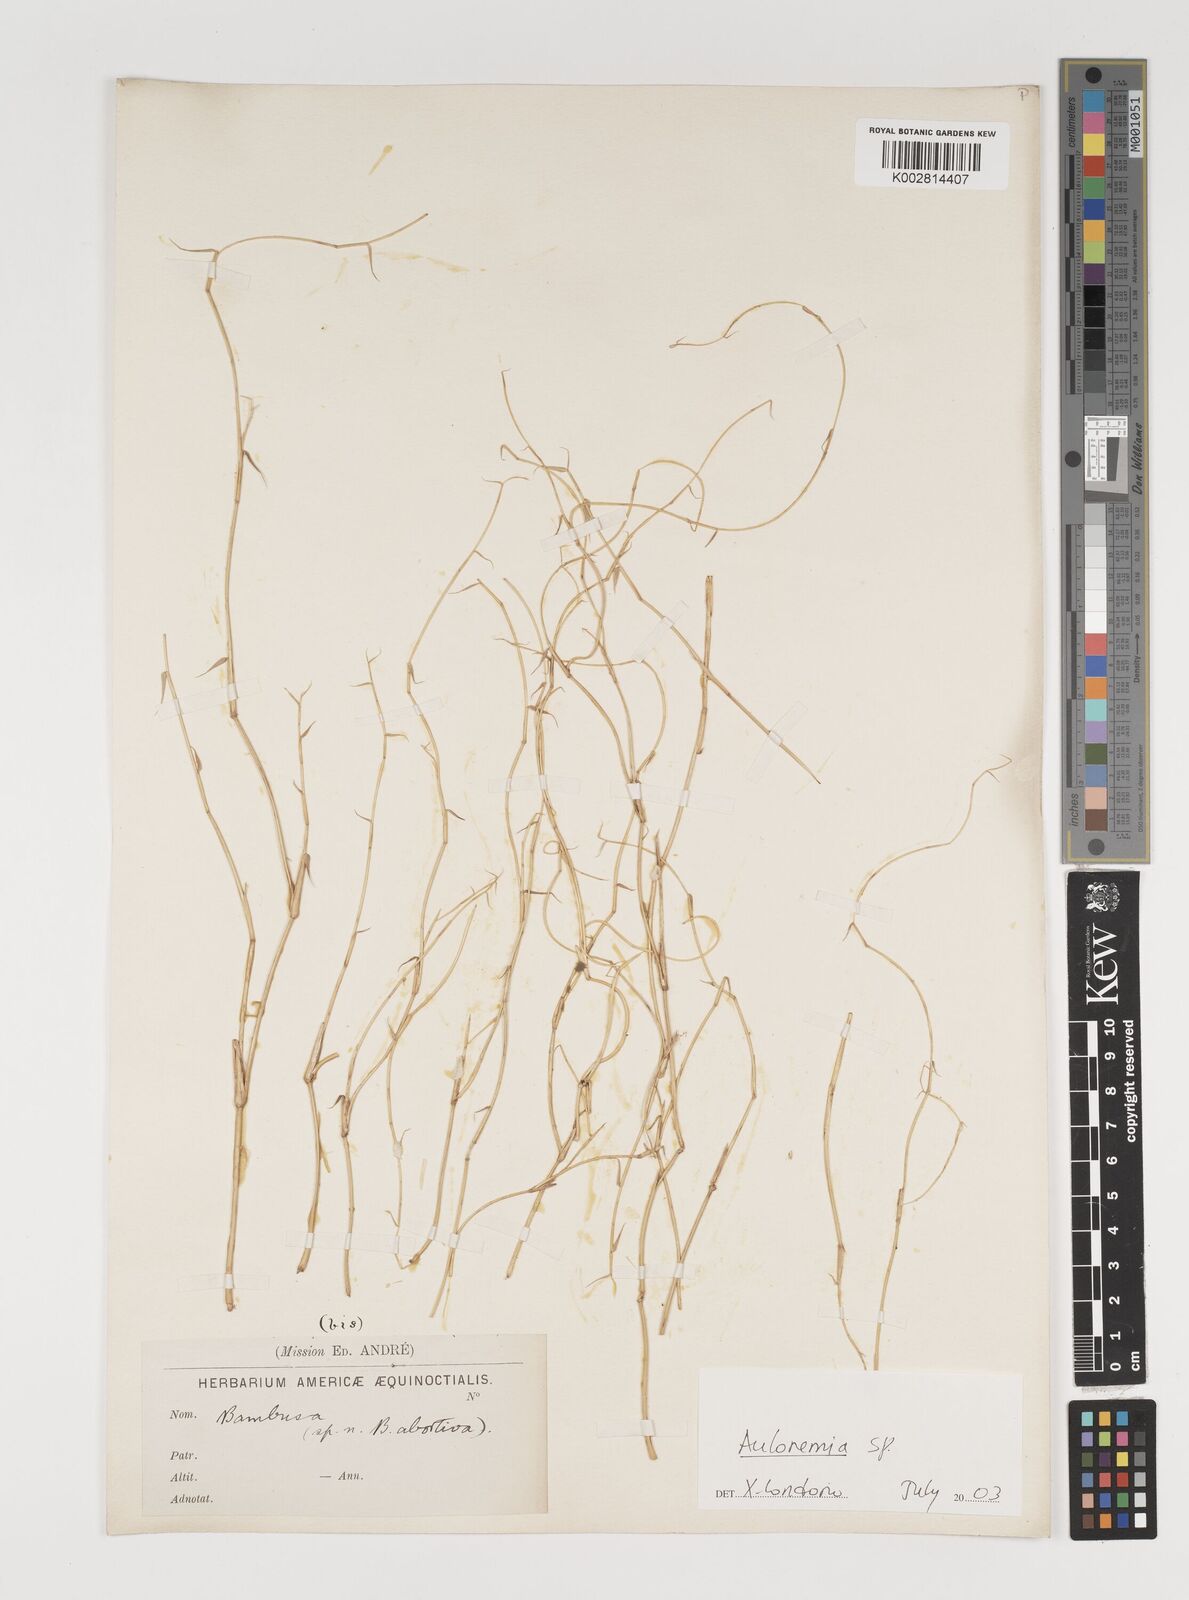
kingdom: Plantae
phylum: Tracheophyta
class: Liliopsida
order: Poales
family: Poaceae
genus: Aulonemia
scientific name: Aulonemia
